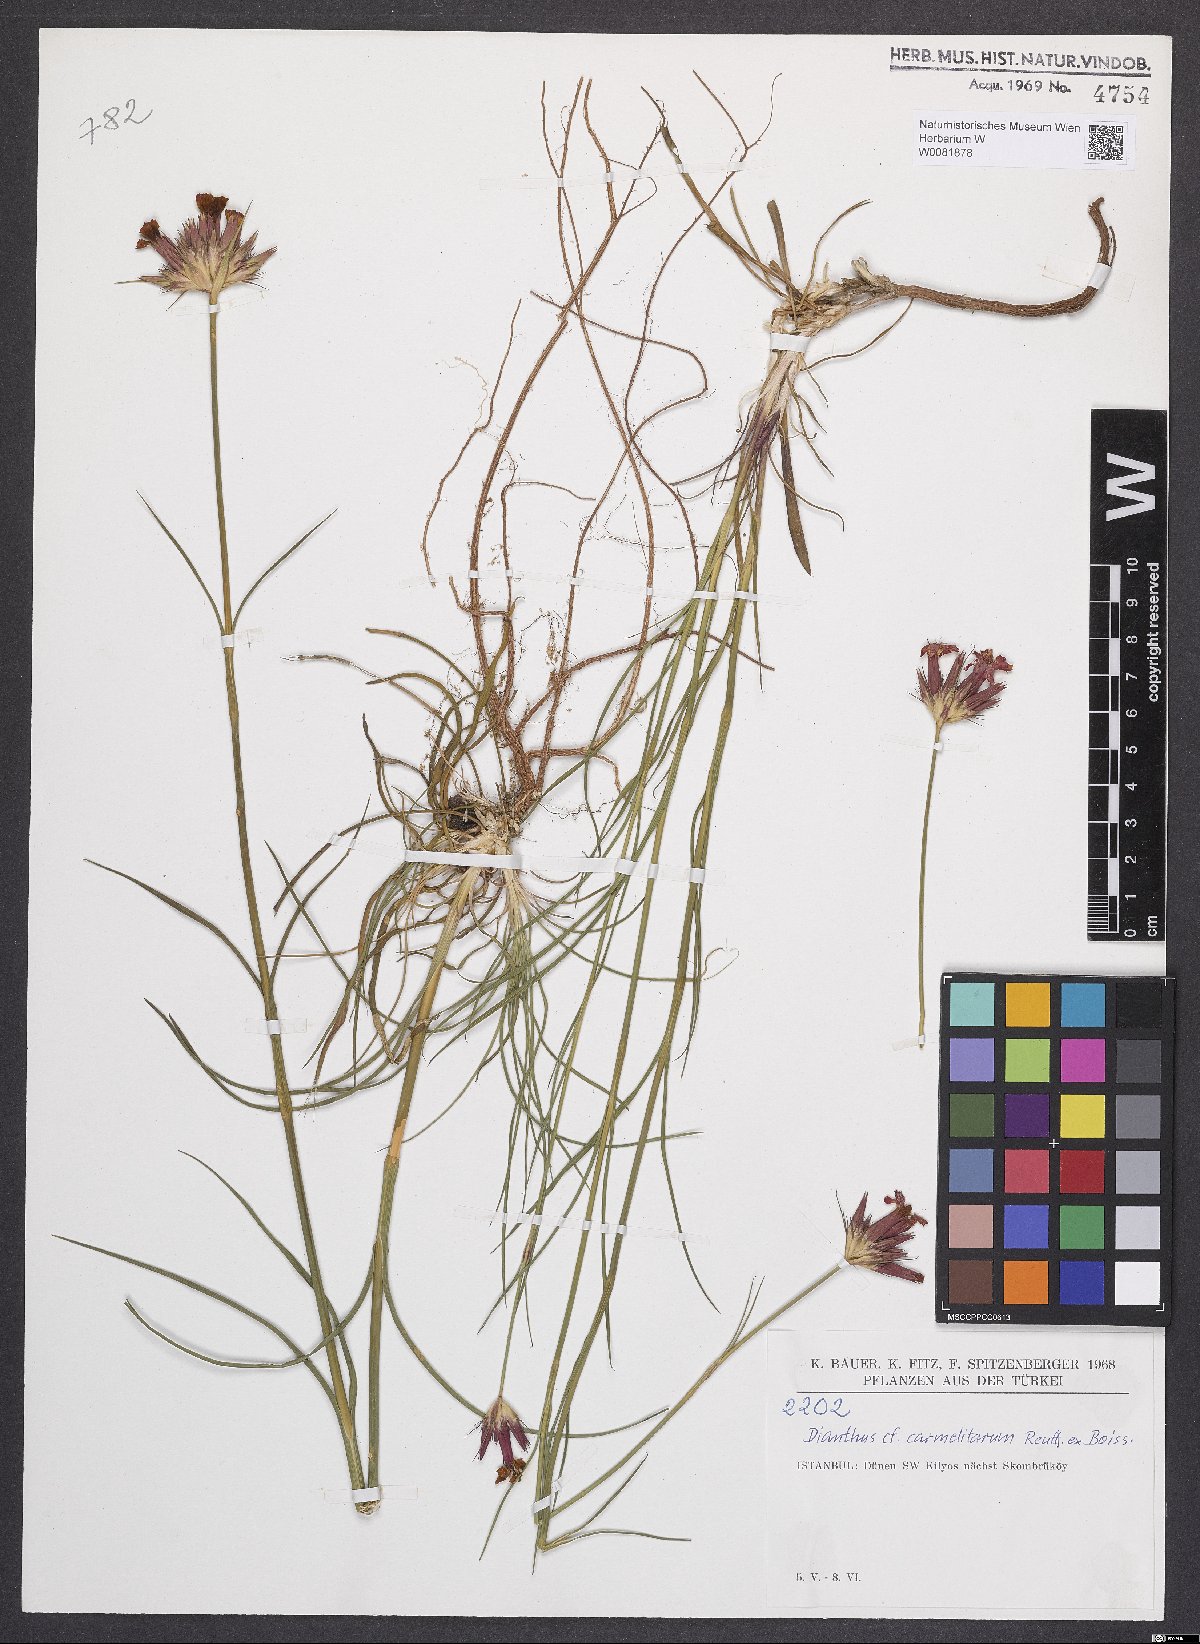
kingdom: Plantae
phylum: Tracheophyta
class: Magnoliopsida
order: Caryophyllales
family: Caryophyllaceae
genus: Dianthus
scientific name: Dianthus carmelitarum
